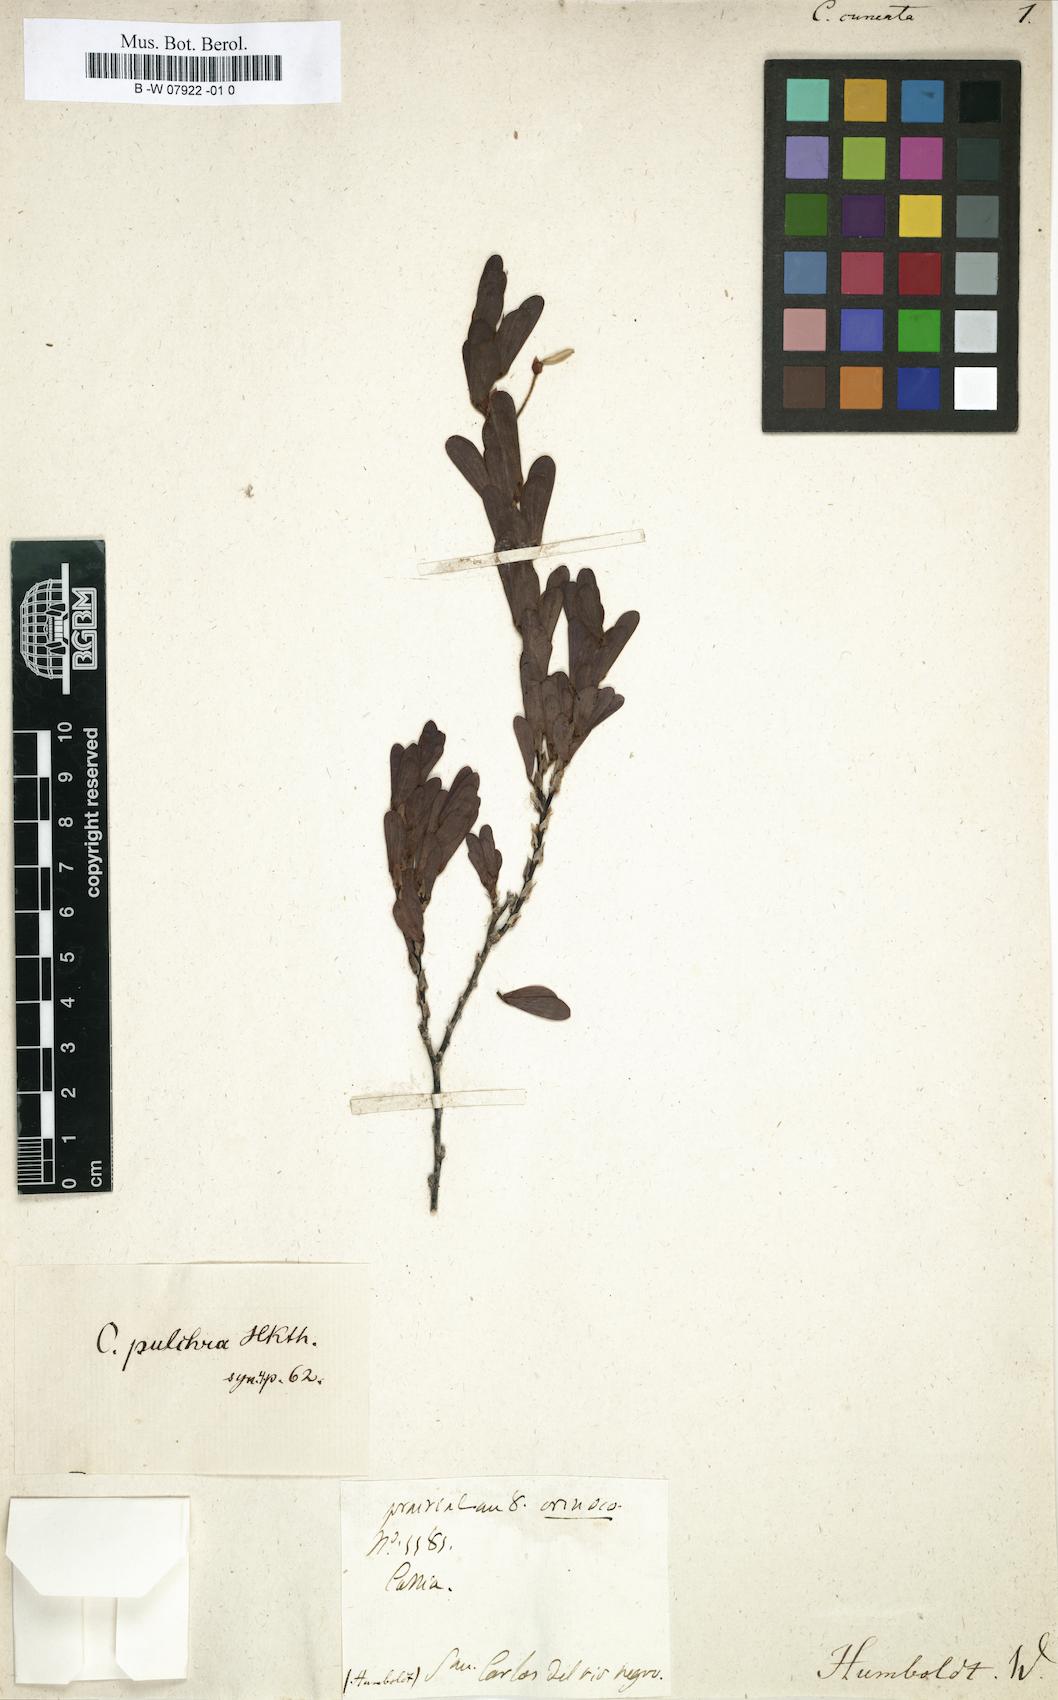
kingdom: Plantae
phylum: Tracheophyta
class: Magnoliopsida
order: Fabales
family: Fabaceae
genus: Chamaecrista
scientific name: Chamaecrista lineata
